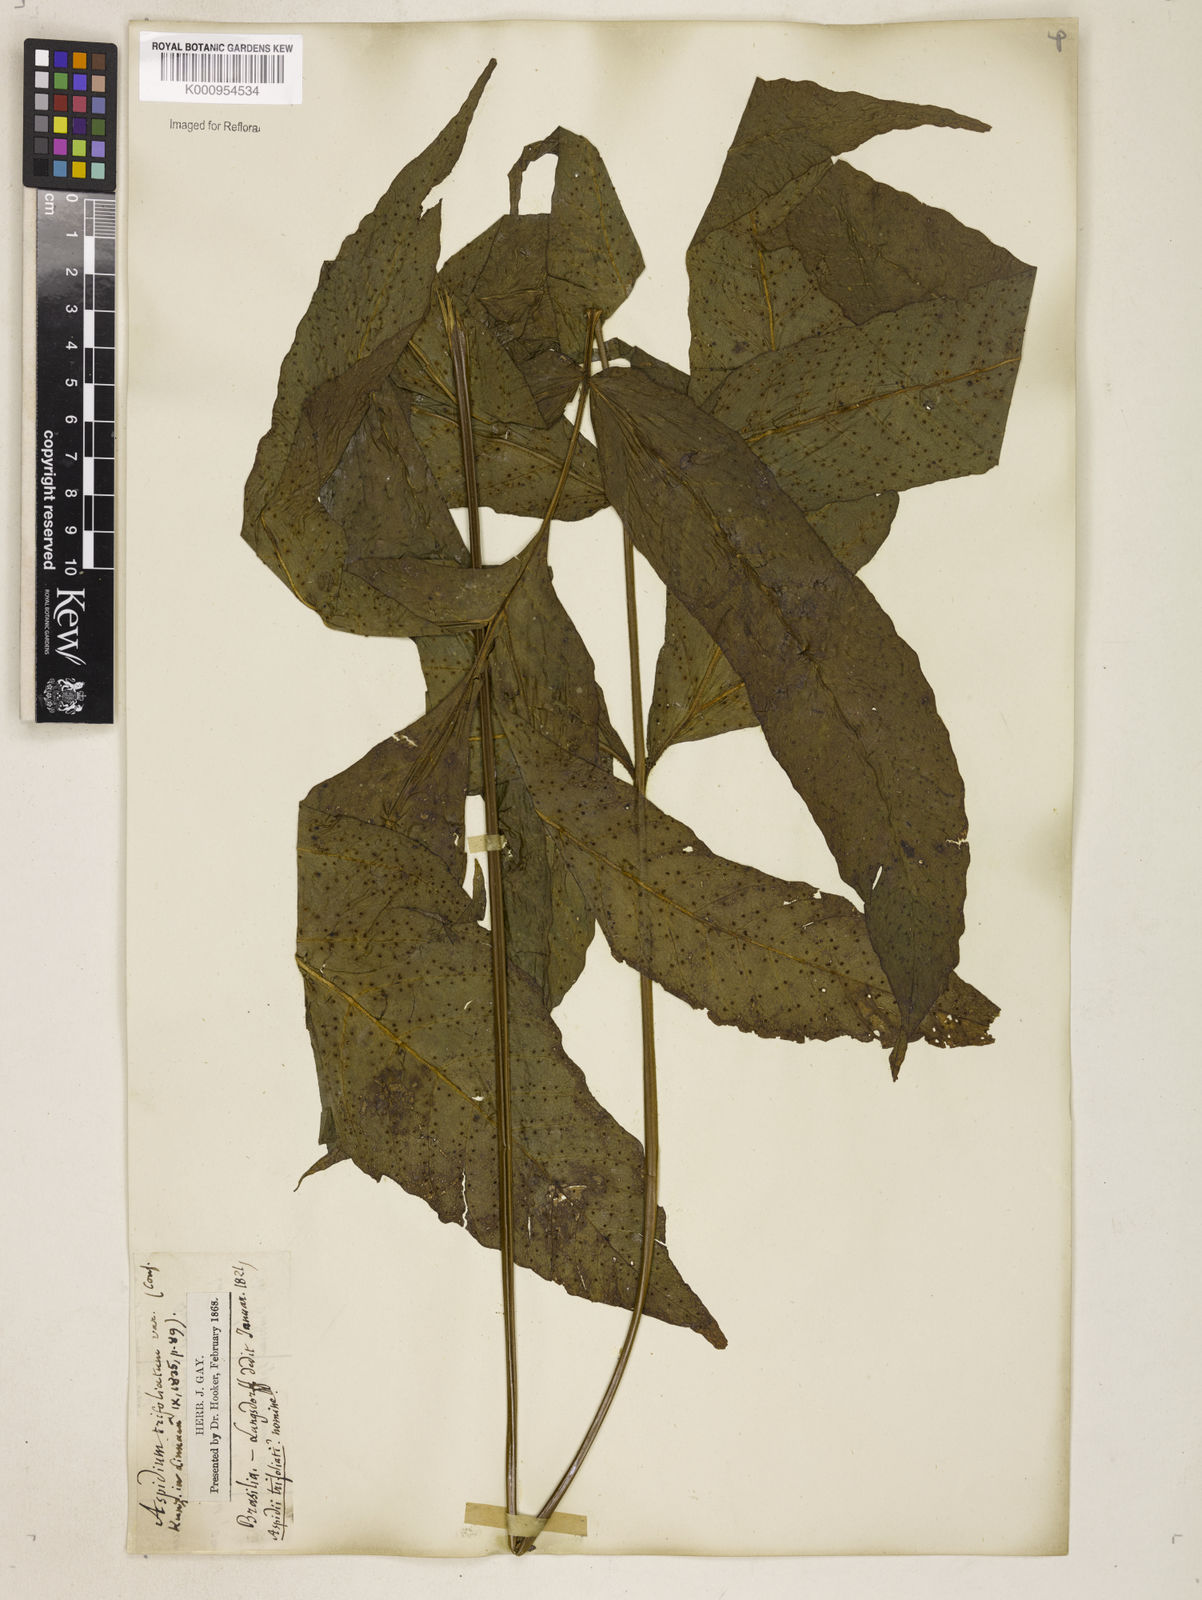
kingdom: Plantae
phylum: Tracheophyta
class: Polypodiopsida
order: Polypodiales
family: Tectariaceae
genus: Tectaria
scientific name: Tectaria incisa
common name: Incised halberd fern
